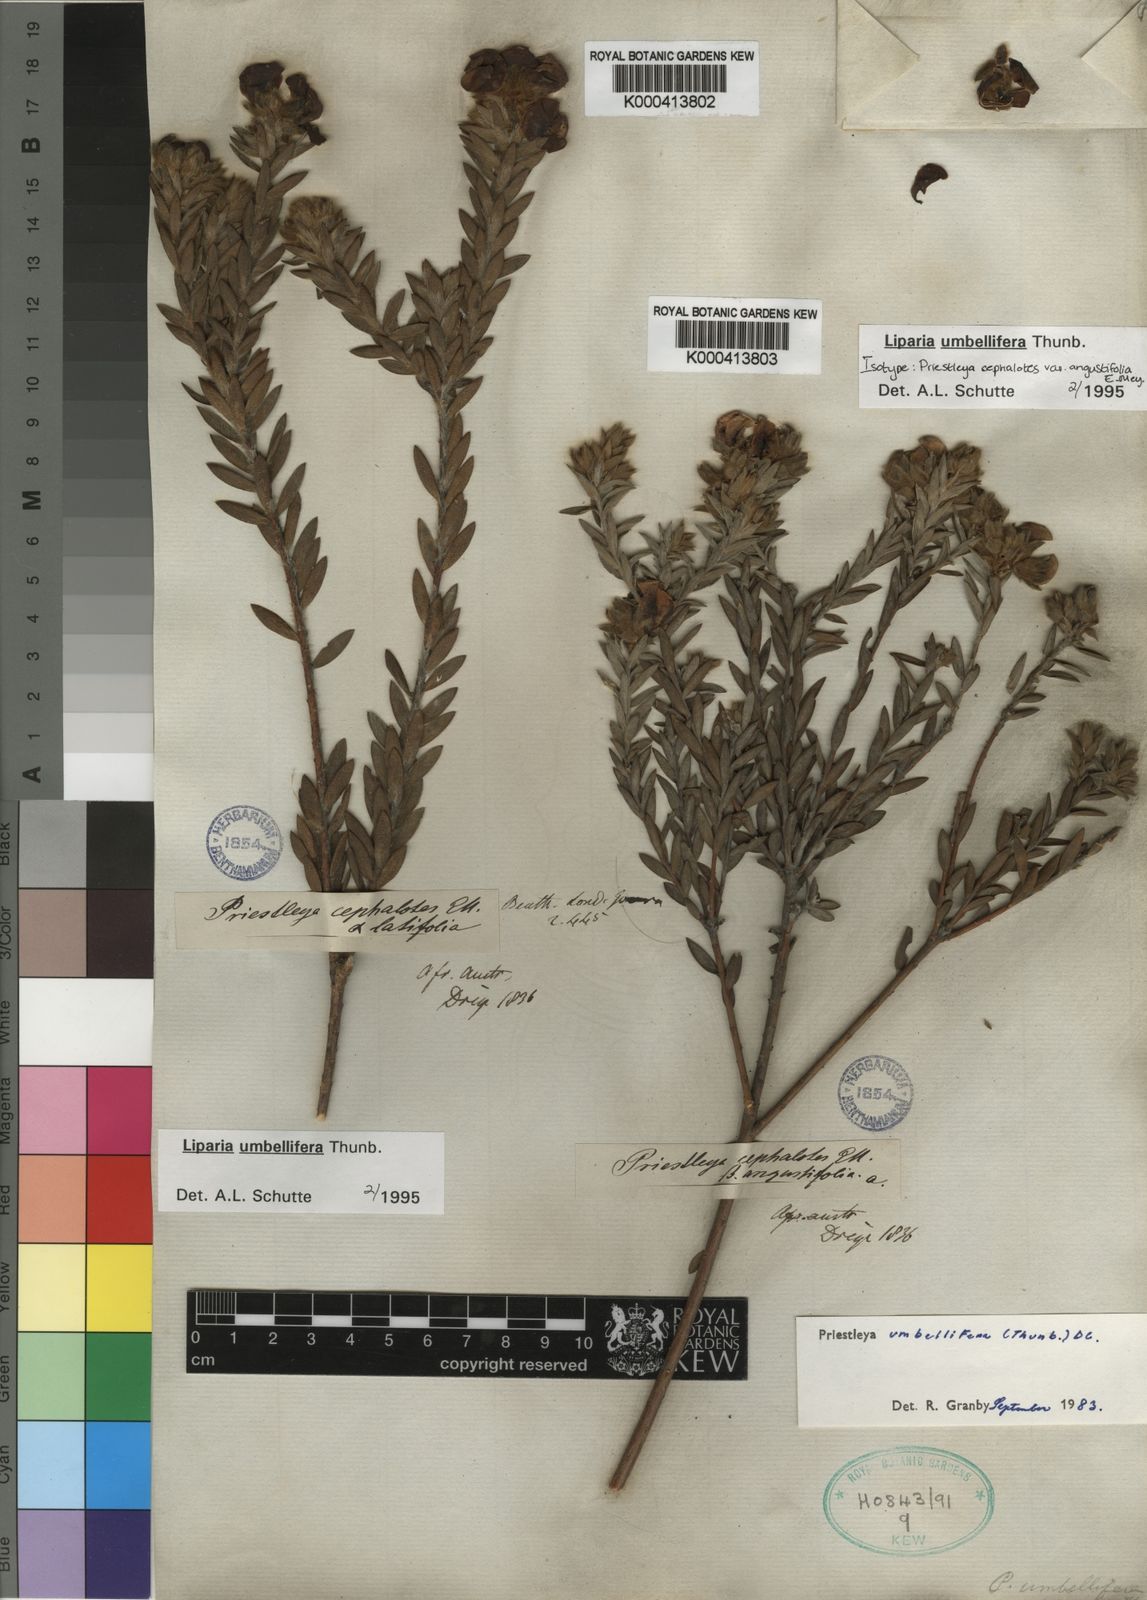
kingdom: Plantae
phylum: Tracheophyta
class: Magnoliopsida
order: Fabales
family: Fabaceae
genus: Liparia
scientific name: Liparia umbellifera
